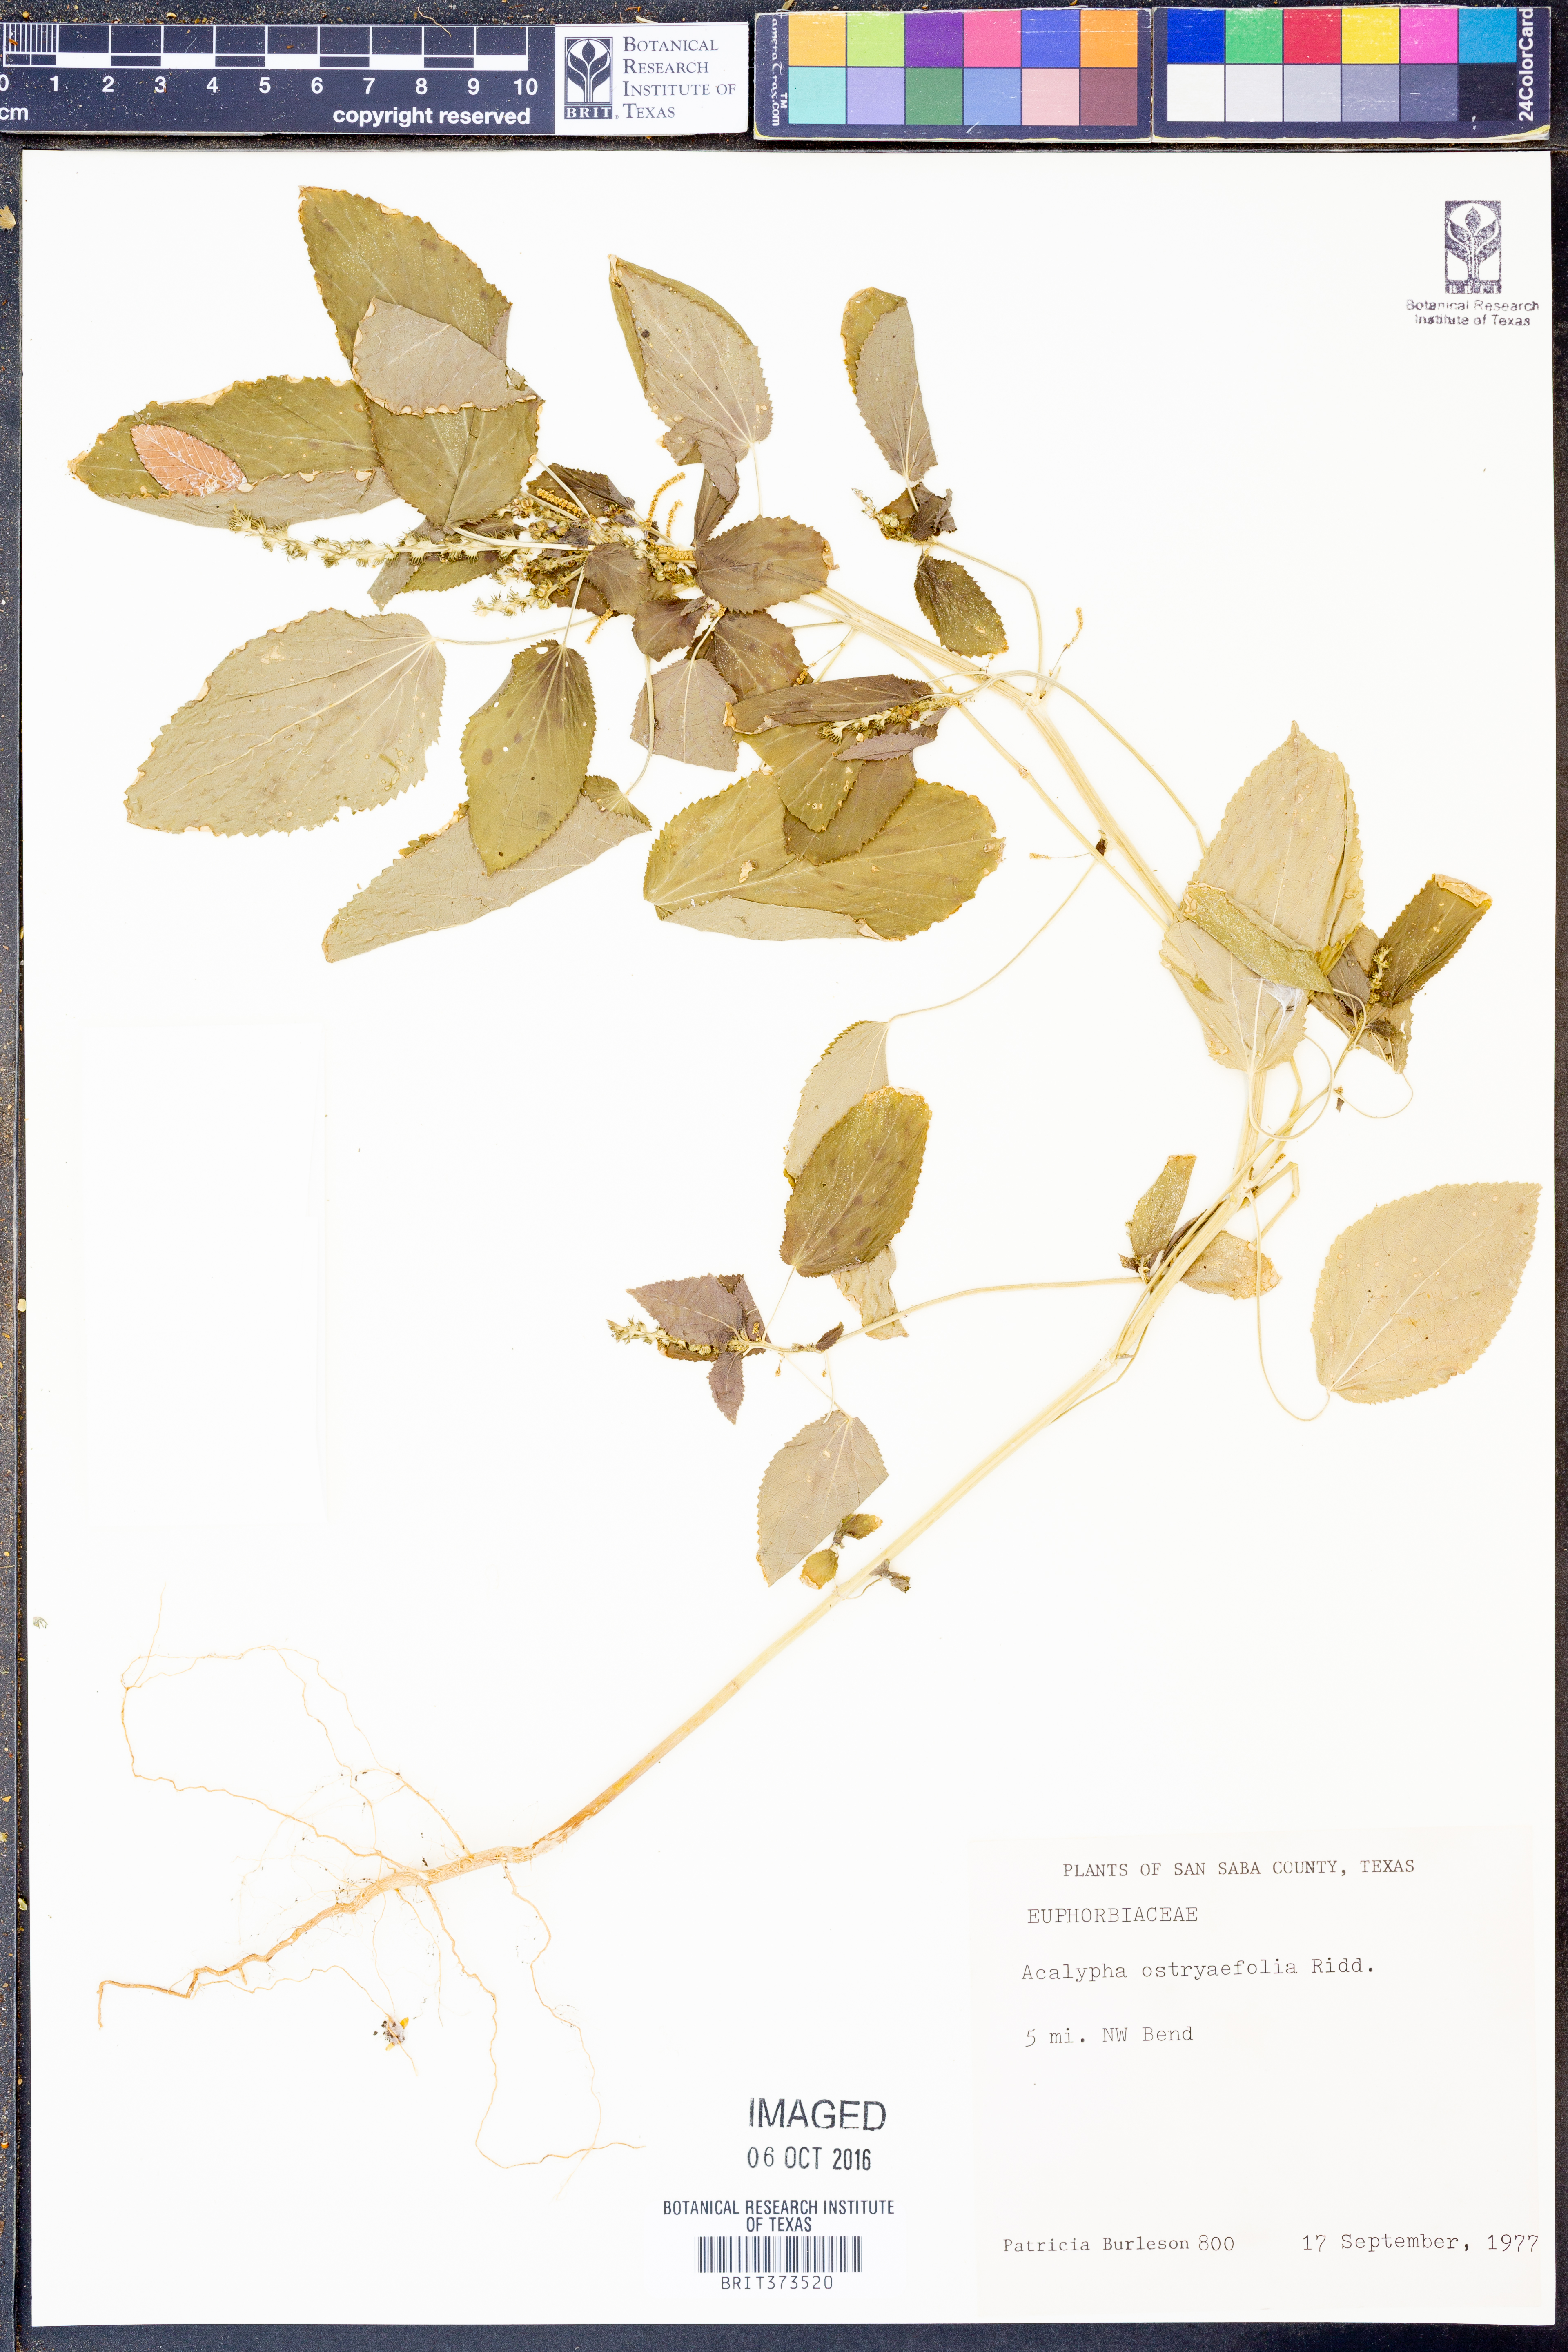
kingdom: Plantae
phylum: Tracheophyta
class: Magnoliopsida
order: Malpighiales
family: Euphorbiaceae
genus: Acalypha
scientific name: Acalypha ostryifolia
